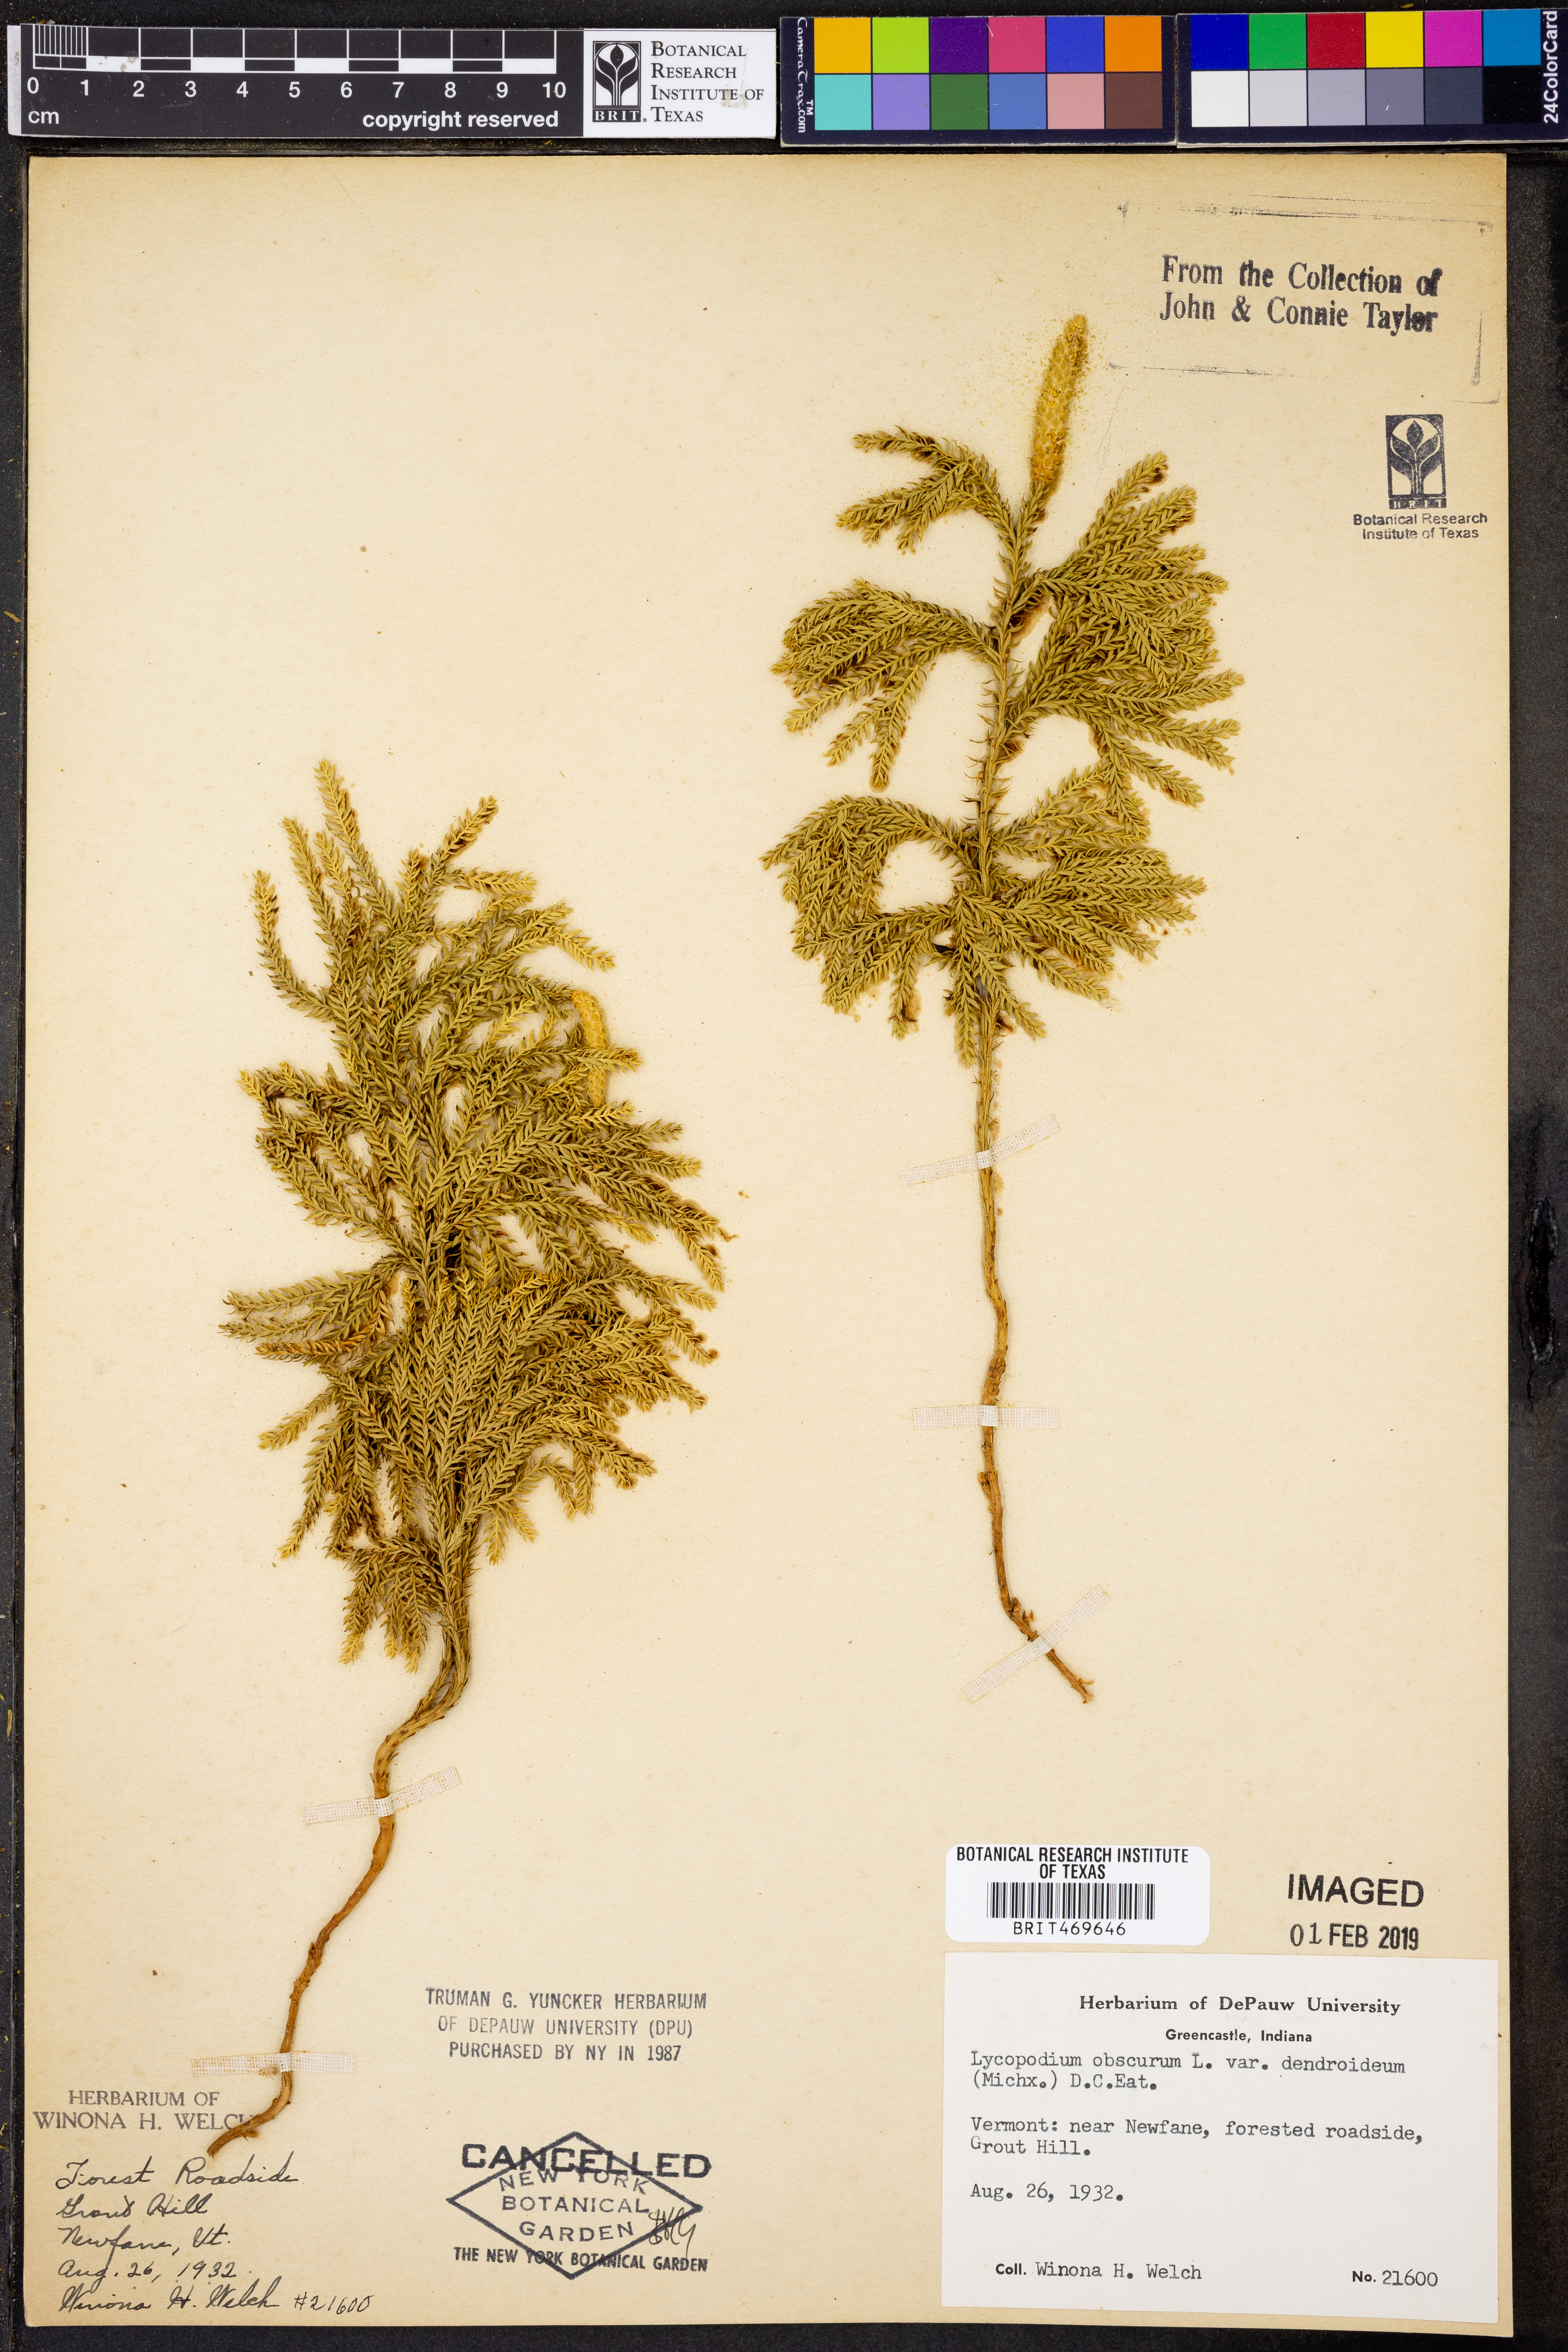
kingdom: Plantae
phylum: Tracheophyta
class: Lycopodiopsida
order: Lycopodiales
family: Lycopodiaceae
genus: Dendrolycopodium
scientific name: Dendrolycopodium dendroideum
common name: Northern tree-clubmoss
